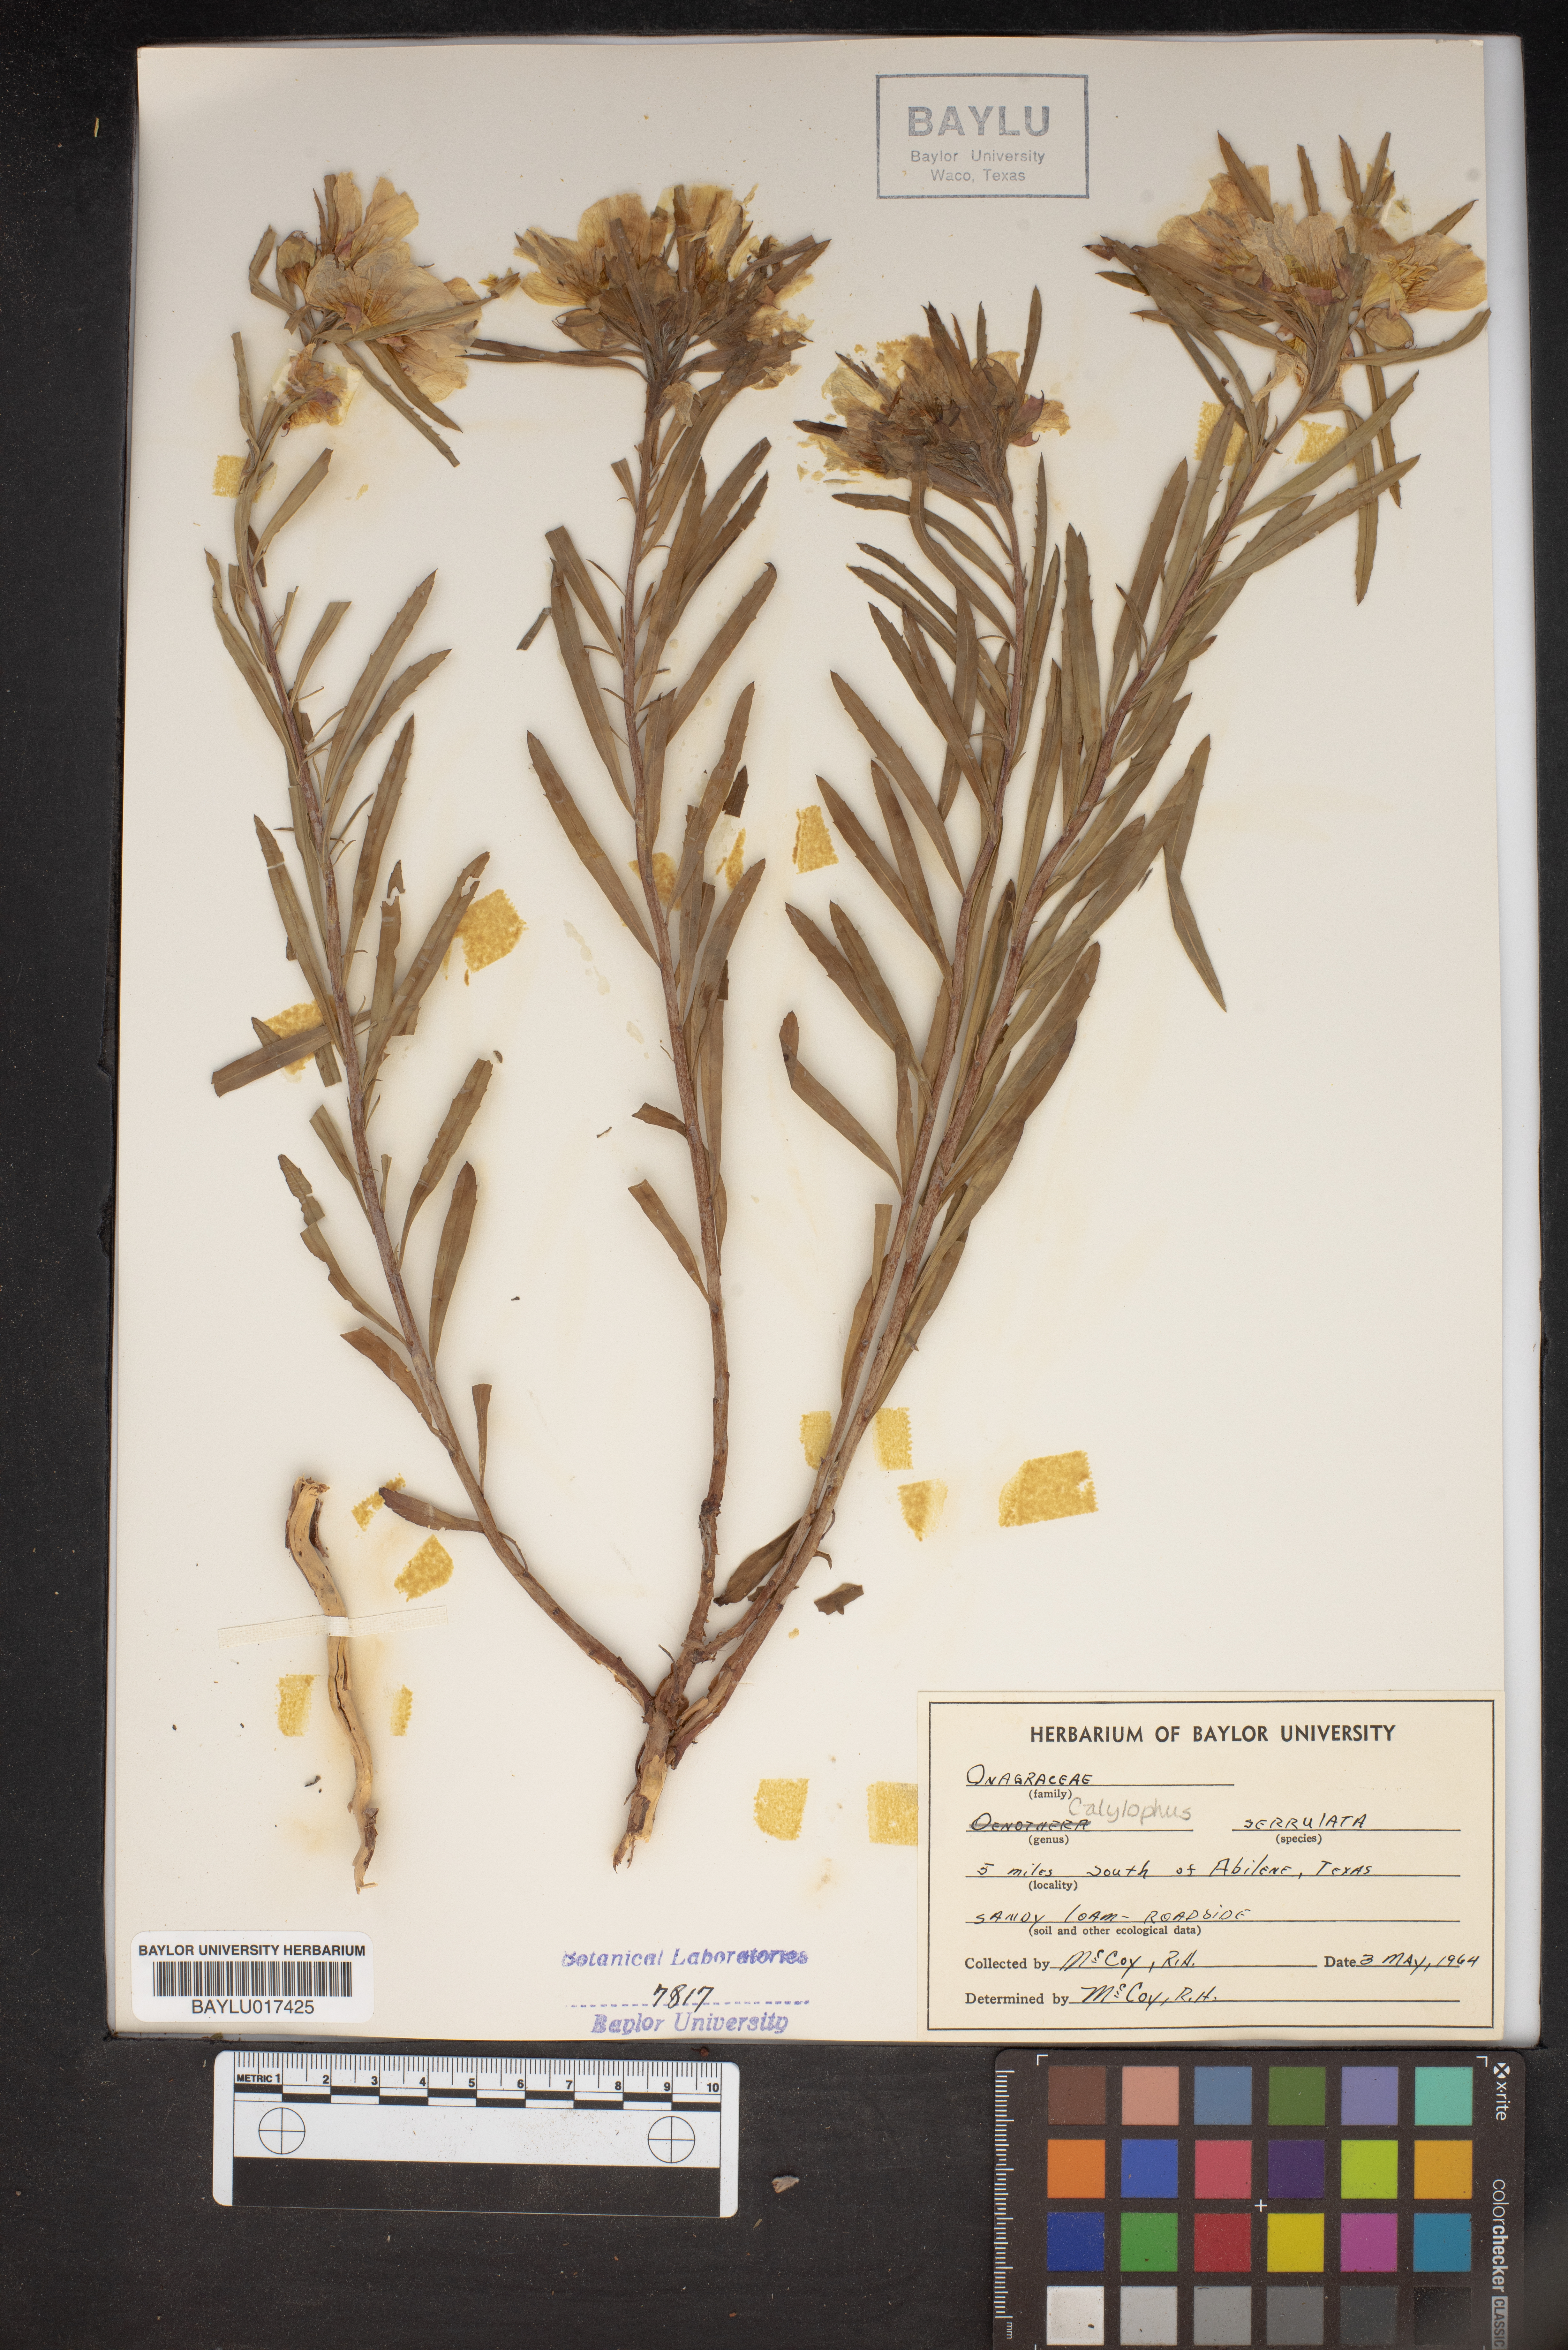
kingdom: Plantae
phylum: Tracheophyta
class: Magnoliopsida
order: Myrtales
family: Onagraceae
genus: Oenothera
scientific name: Oenothera serrulata
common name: Half-shrub calylophus
